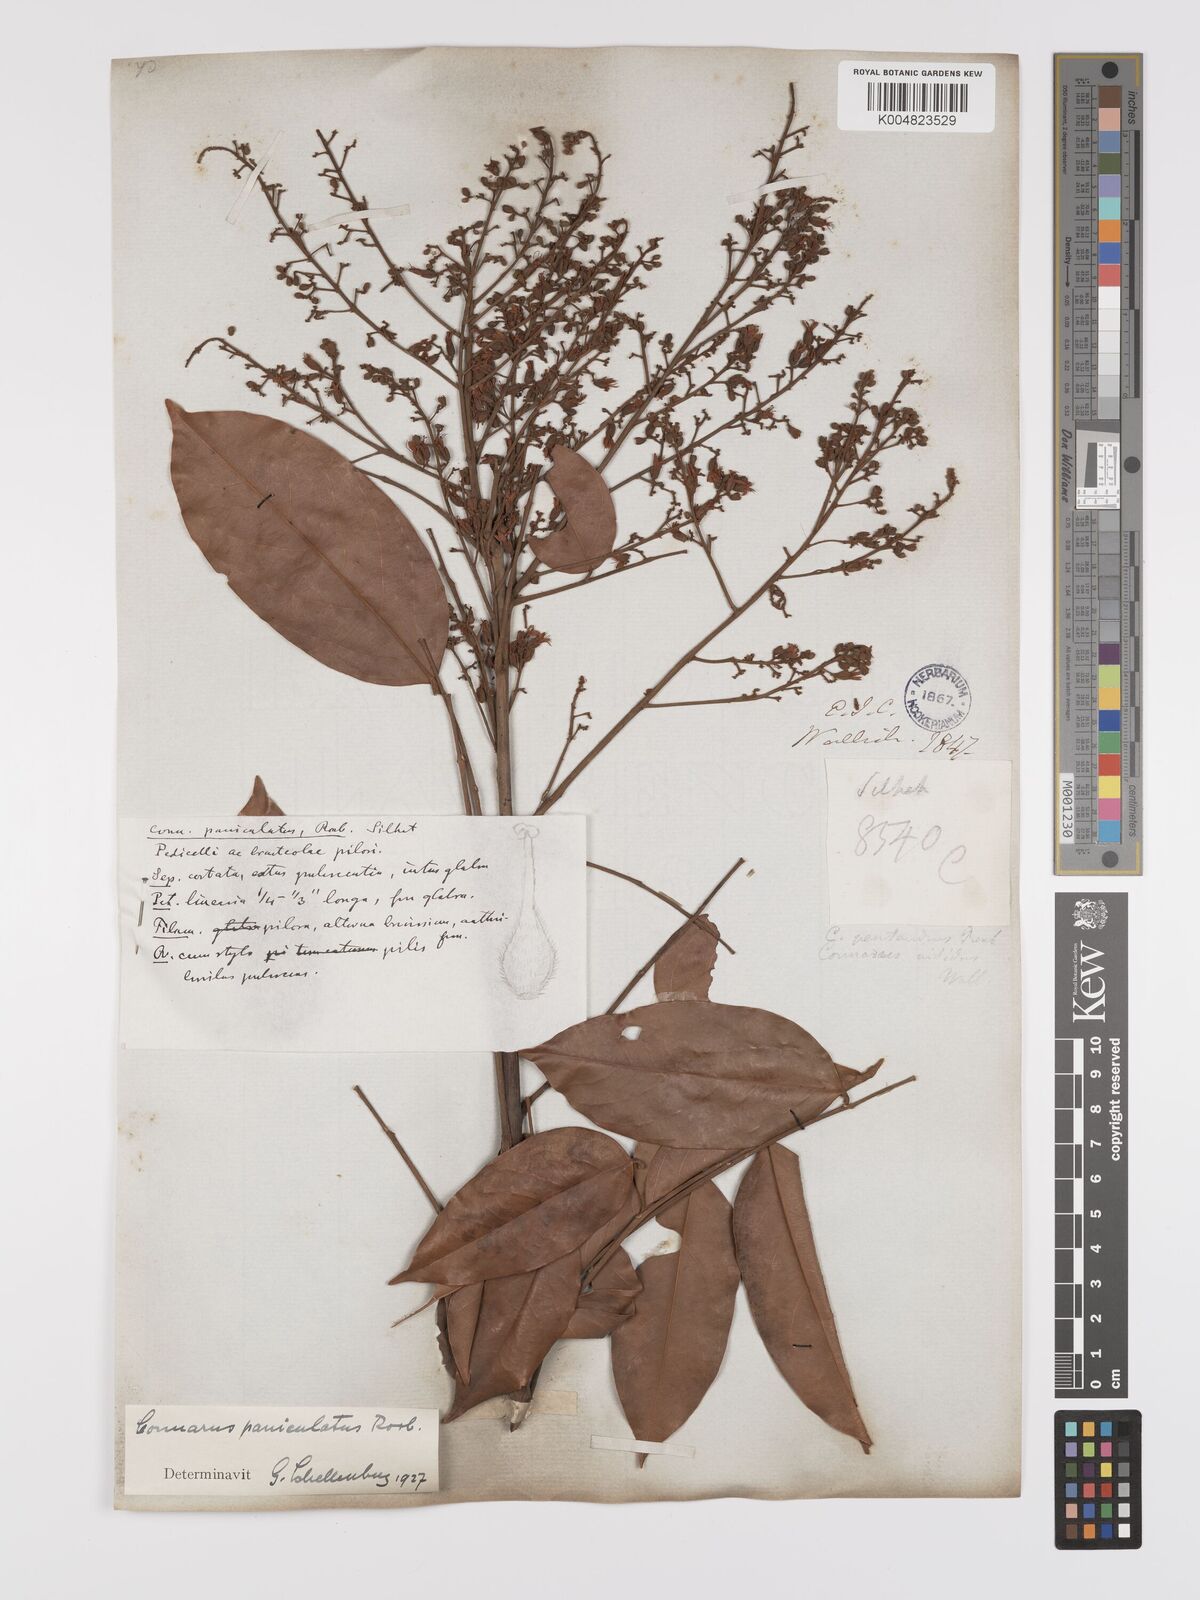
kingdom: Plantae
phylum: Tracheophyta
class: Magnoliopsida
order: Oxalidales
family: Connaraceae
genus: Connarus
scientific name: Connarus paniculatus
